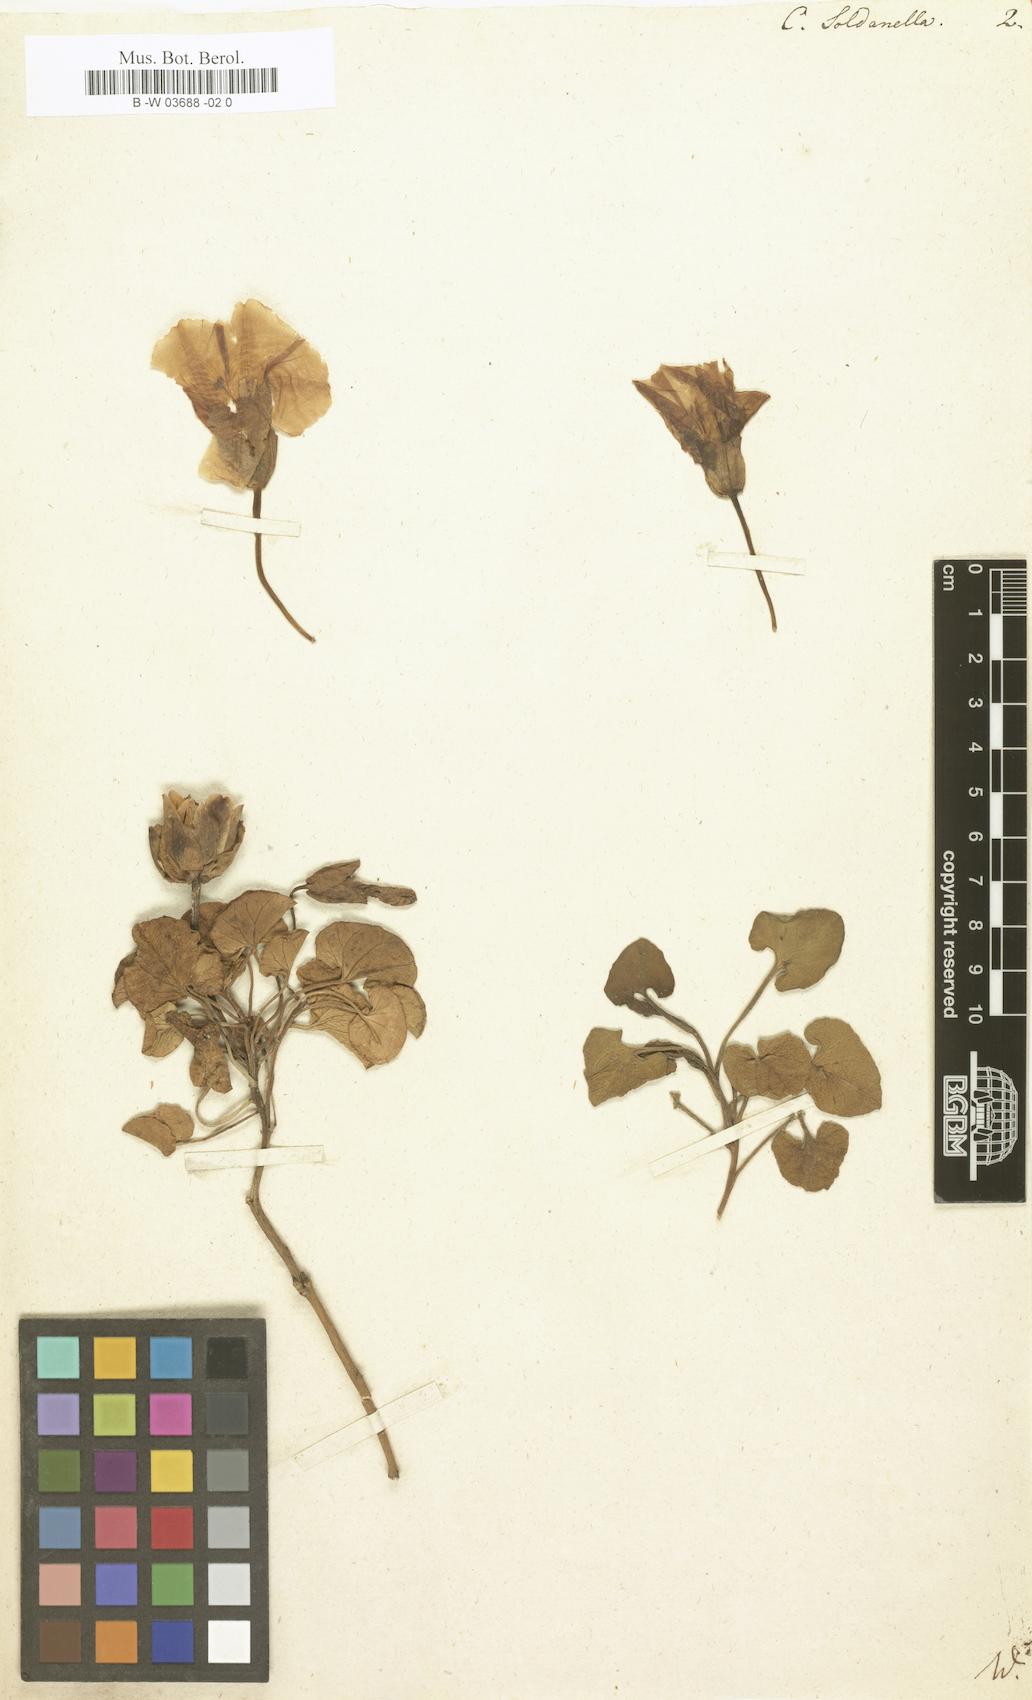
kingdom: Plantae
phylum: Tracheophyta
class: Magnoliopsida
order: Solanales
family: Convolvulaceae
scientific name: Convolvulaceae
